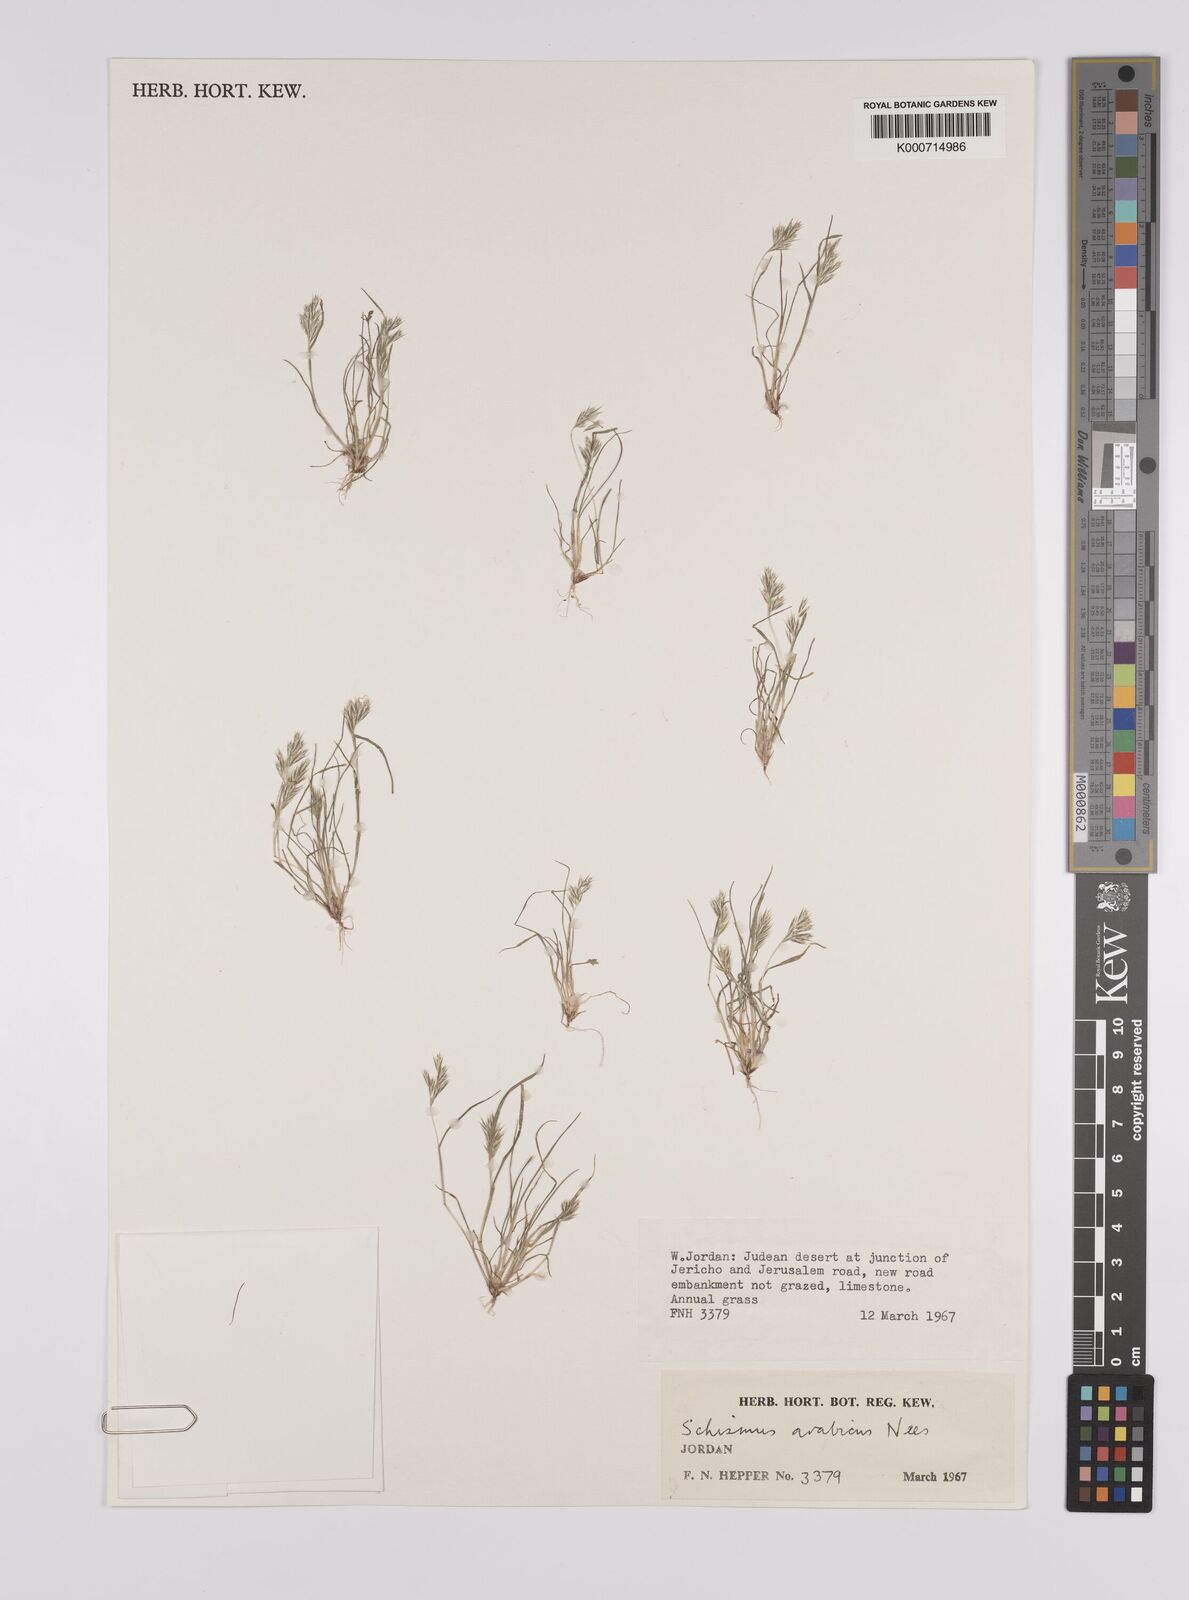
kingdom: Plantae
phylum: Tracheophyta
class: Liliopsida
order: Poales
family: Poaceae
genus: Schismus
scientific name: Schismus arabicus
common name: Arabian schismus
